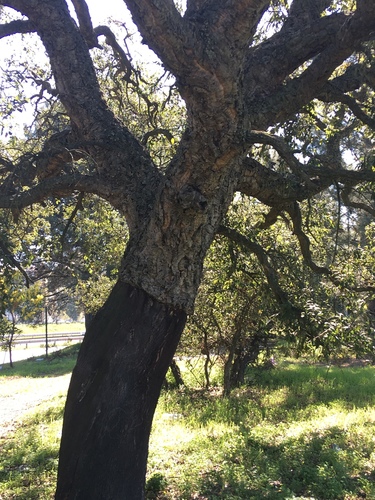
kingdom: Plantae
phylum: Tracheophyta
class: Magnoliopsida
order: Fagales
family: Fagaceae
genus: Quercus
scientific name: Quercus suber
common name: Cork oak
